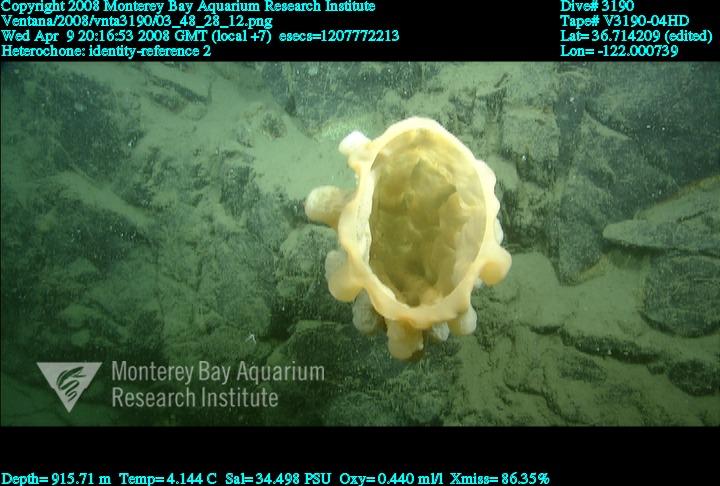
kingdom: Animalia
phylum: Porifera
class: Hexactinellida
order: Sceptrulophora
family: Aphrocallistidae
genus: Heterochone
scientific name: Heterochone
